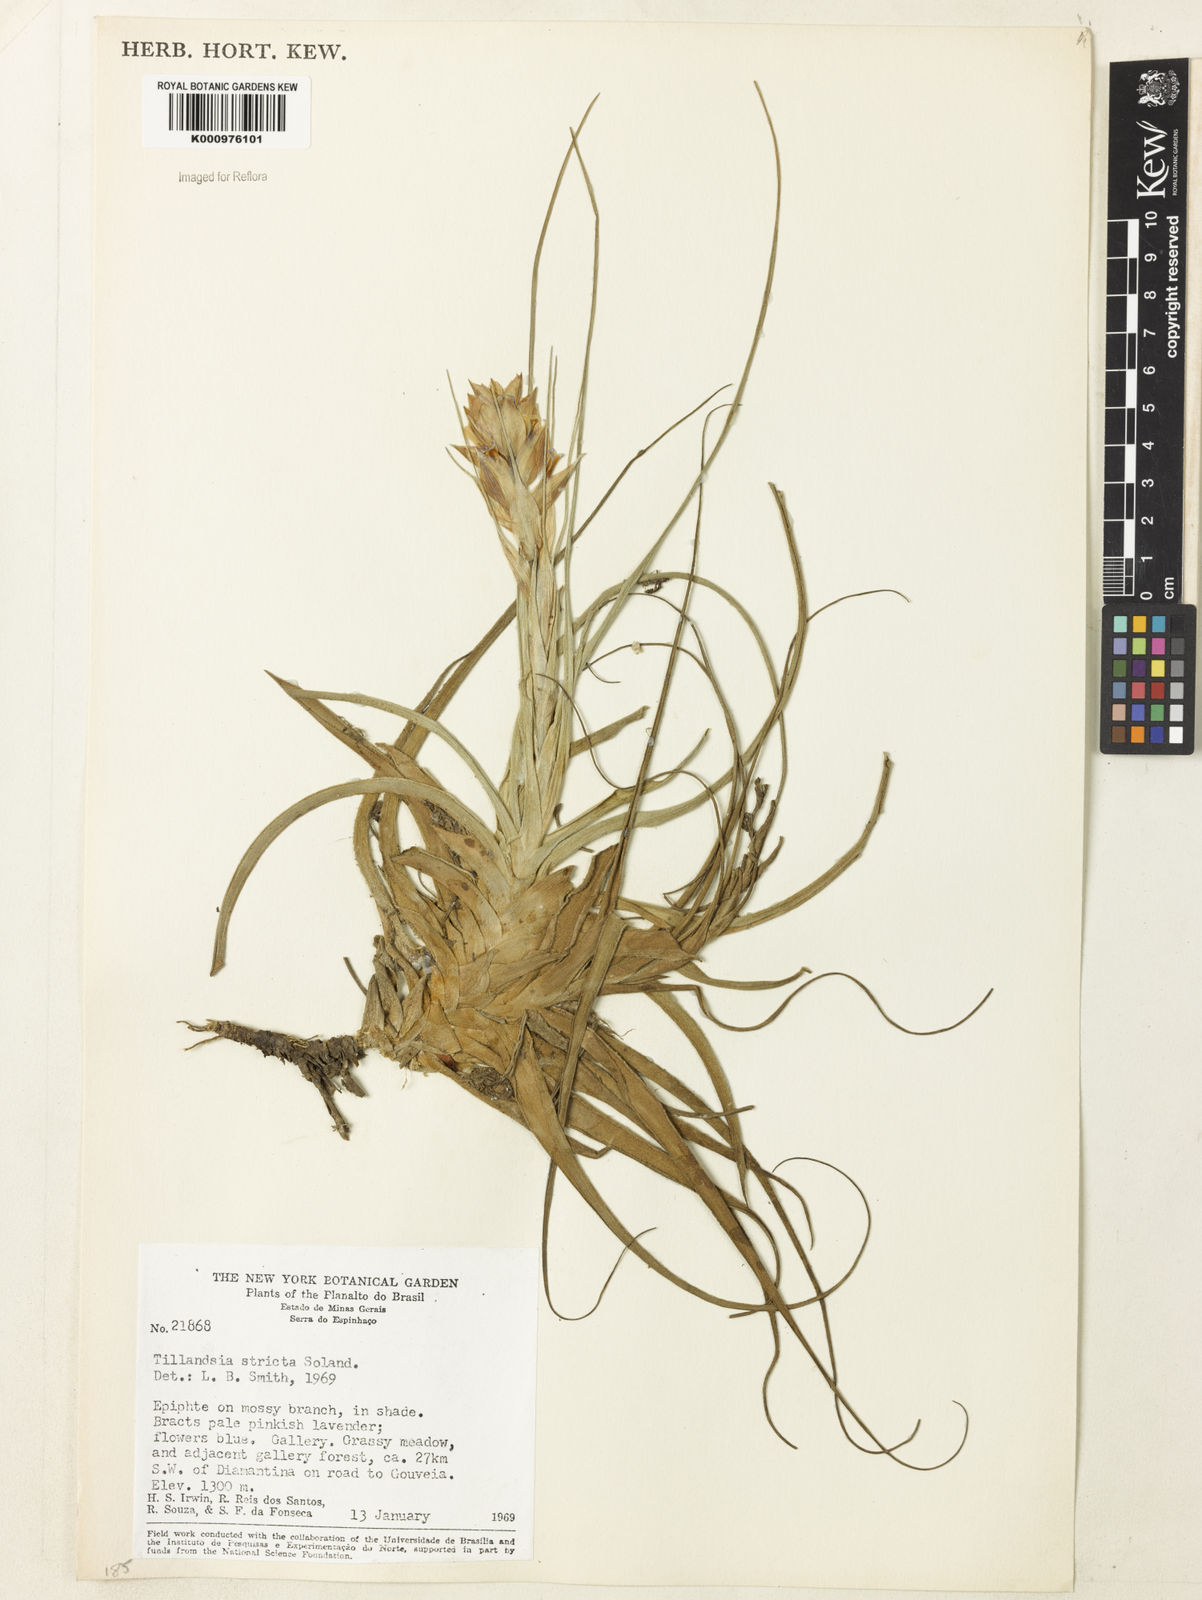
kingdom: Plantae
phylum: Tracheophyta
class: Liliopsida
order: Poales
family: Bromeliaceae
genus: Tillandsia
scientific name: Tillandsia
